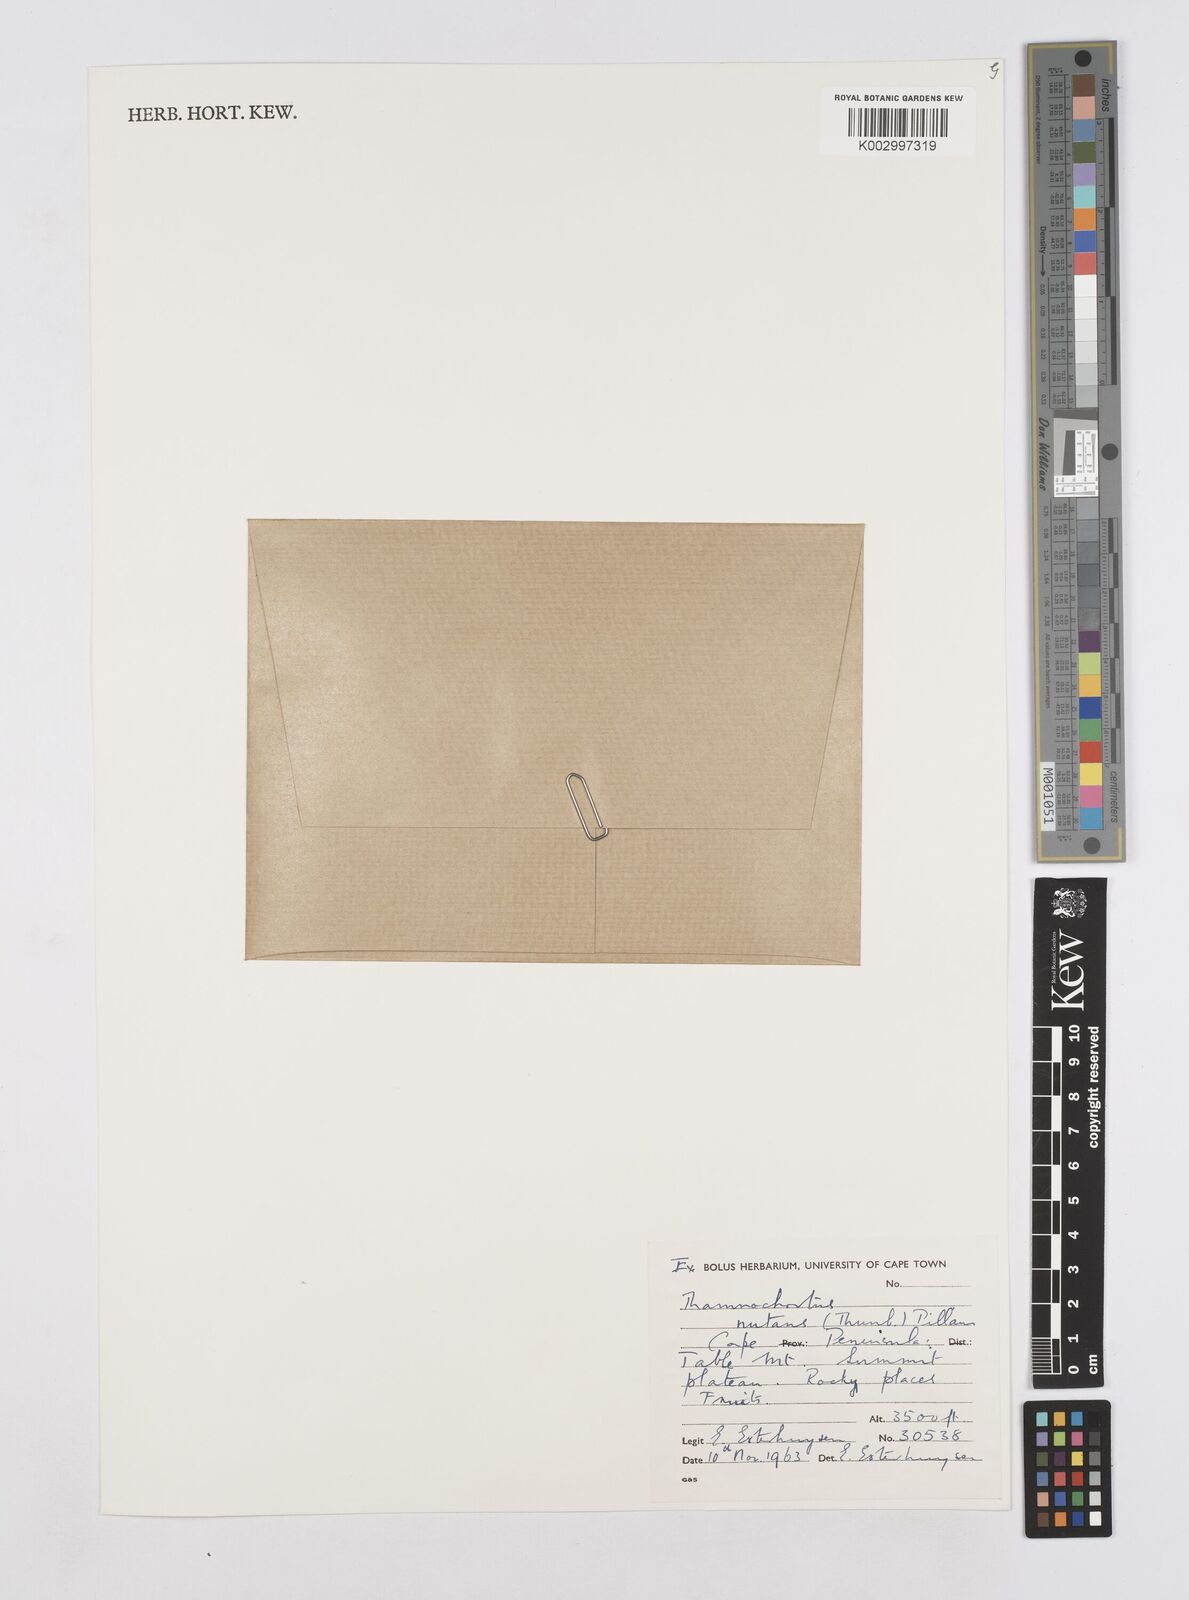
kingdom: Plantae
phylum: Tracheophyta
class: Liliopsida
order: Poales
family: Restionaceae
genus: Thamnochortus
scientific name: Thamnochortus
